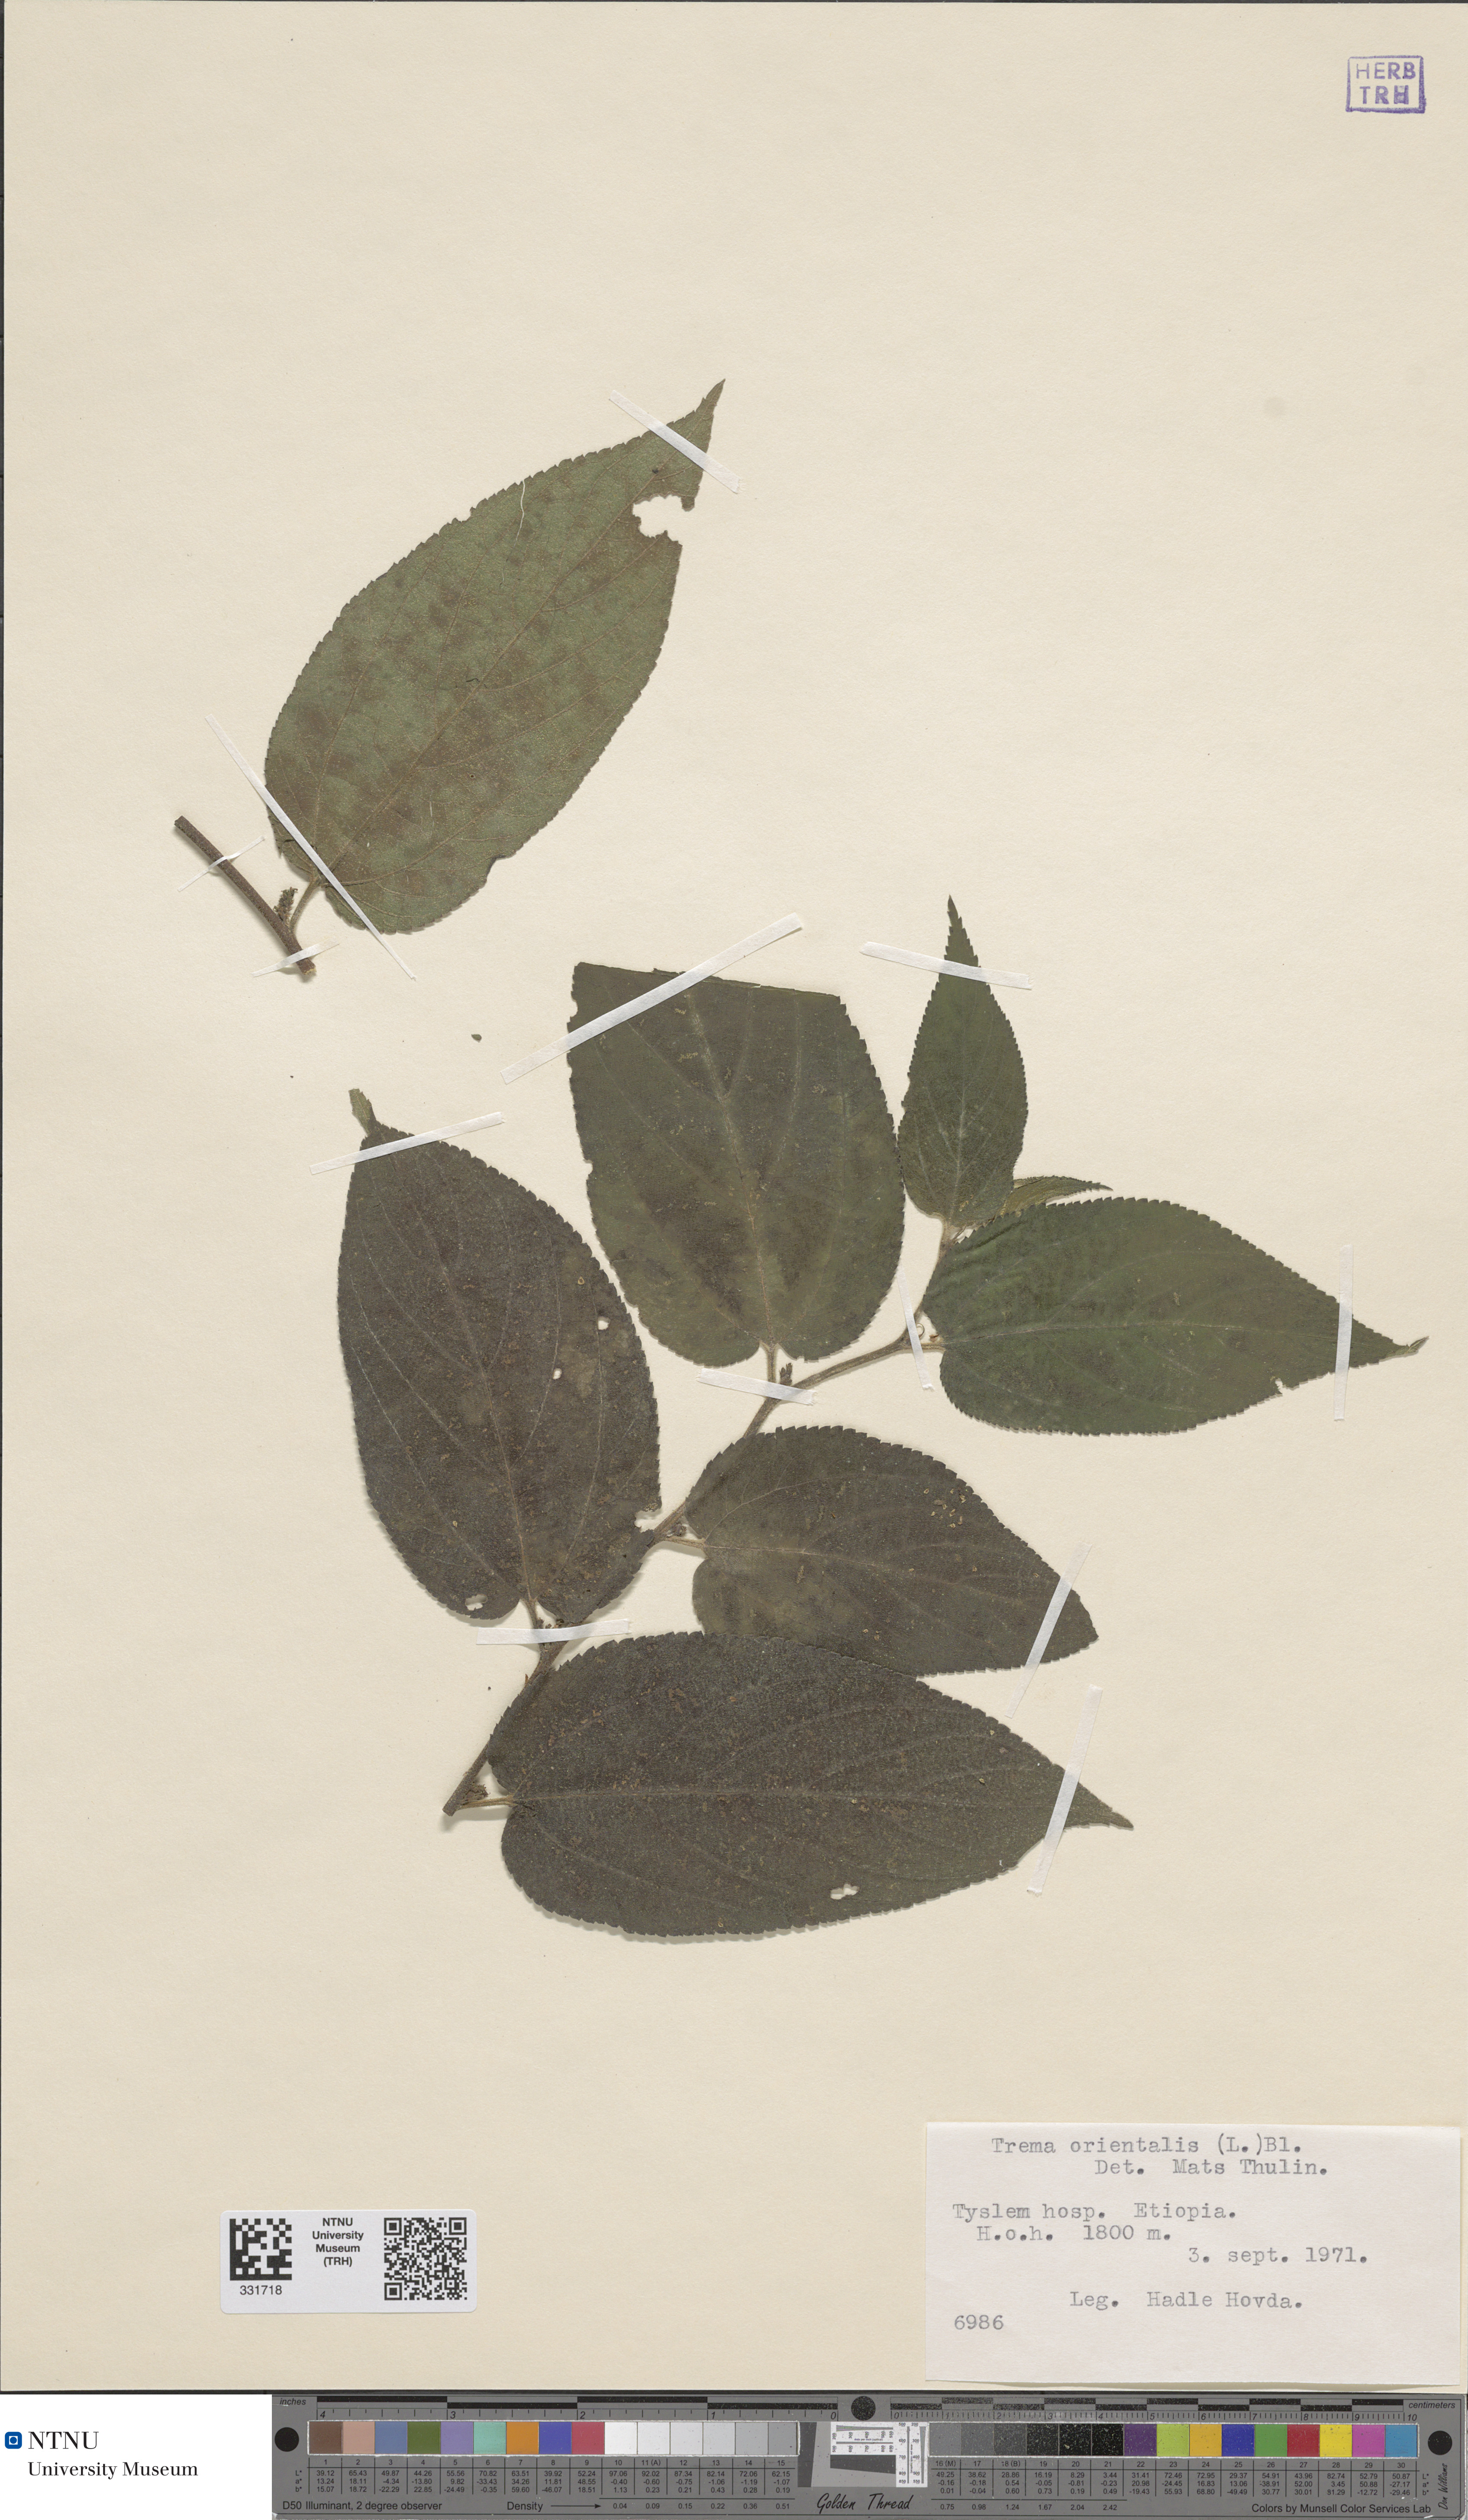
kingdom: Plantae
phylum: Tracheophyta
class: Magnoliopsida
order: Rosales
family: Cannabaceae
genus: Trema
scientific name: Trema orientale
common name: Indian charcoal tree
